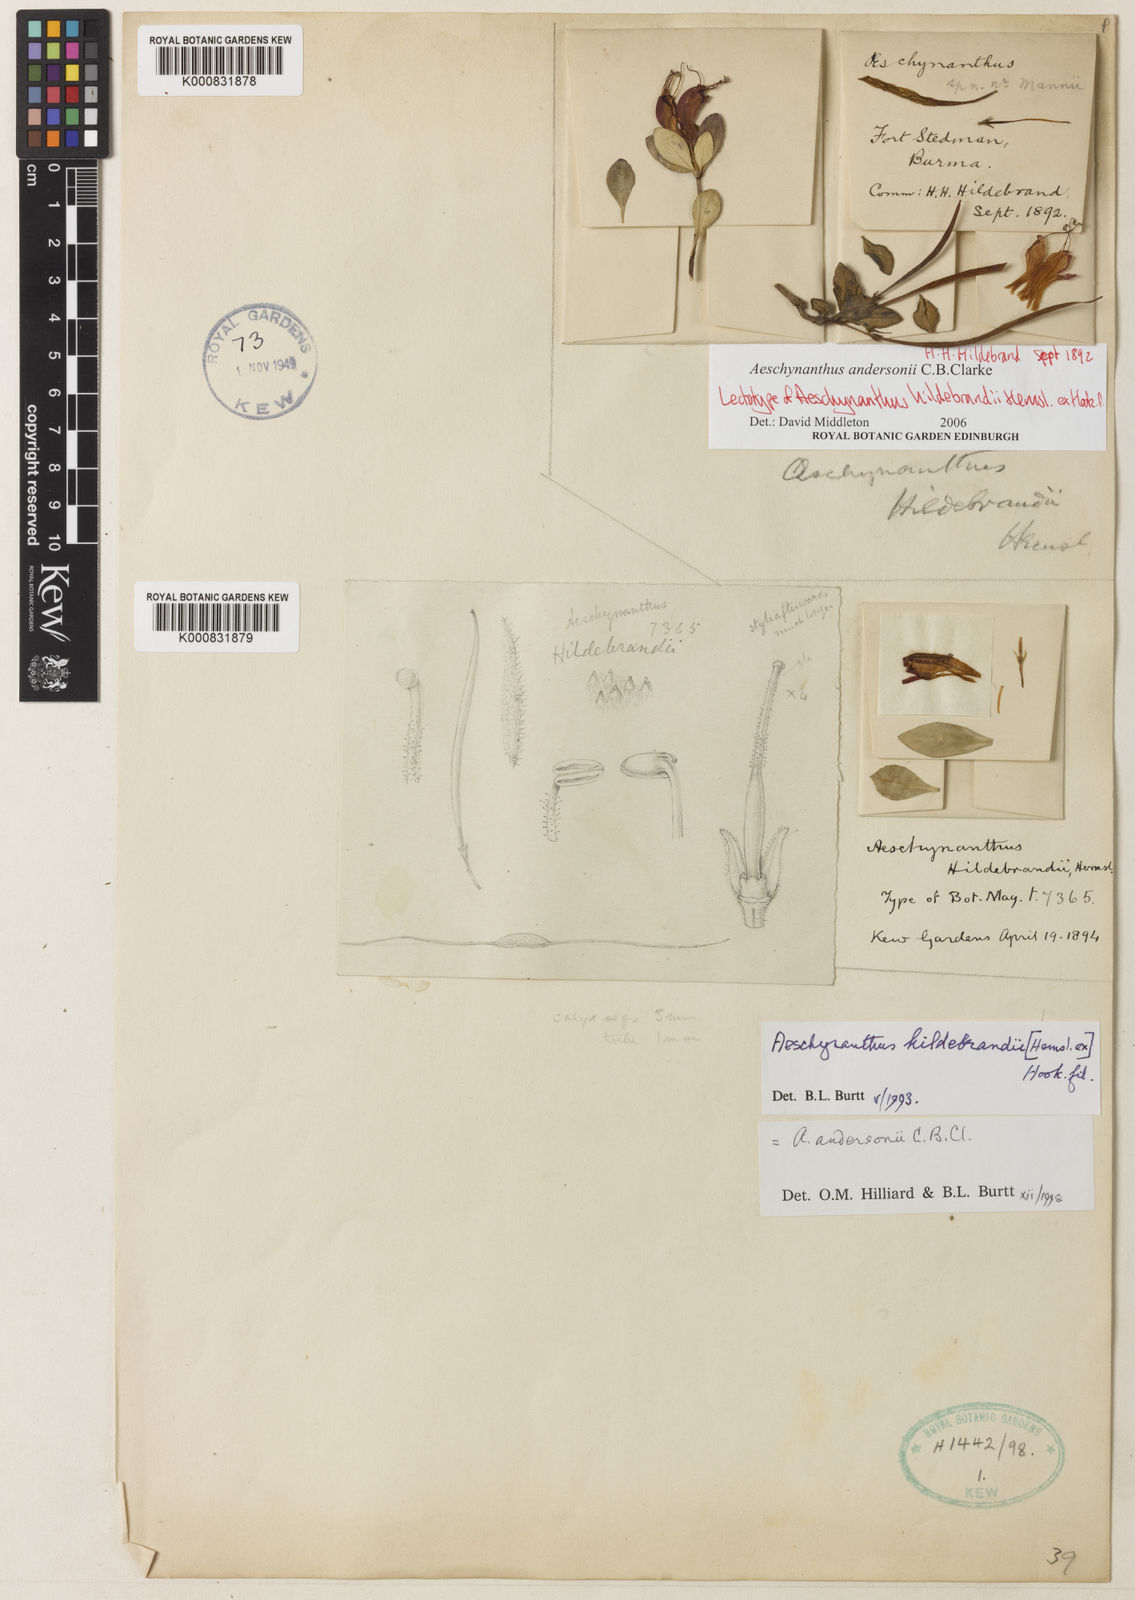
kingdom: Plantae
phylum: Tracheophyta
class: Magnoliopsida
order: Lamiales
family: Gesneriaceae
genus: Aeschynanthus
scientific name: Aeschynanthus andersonii
